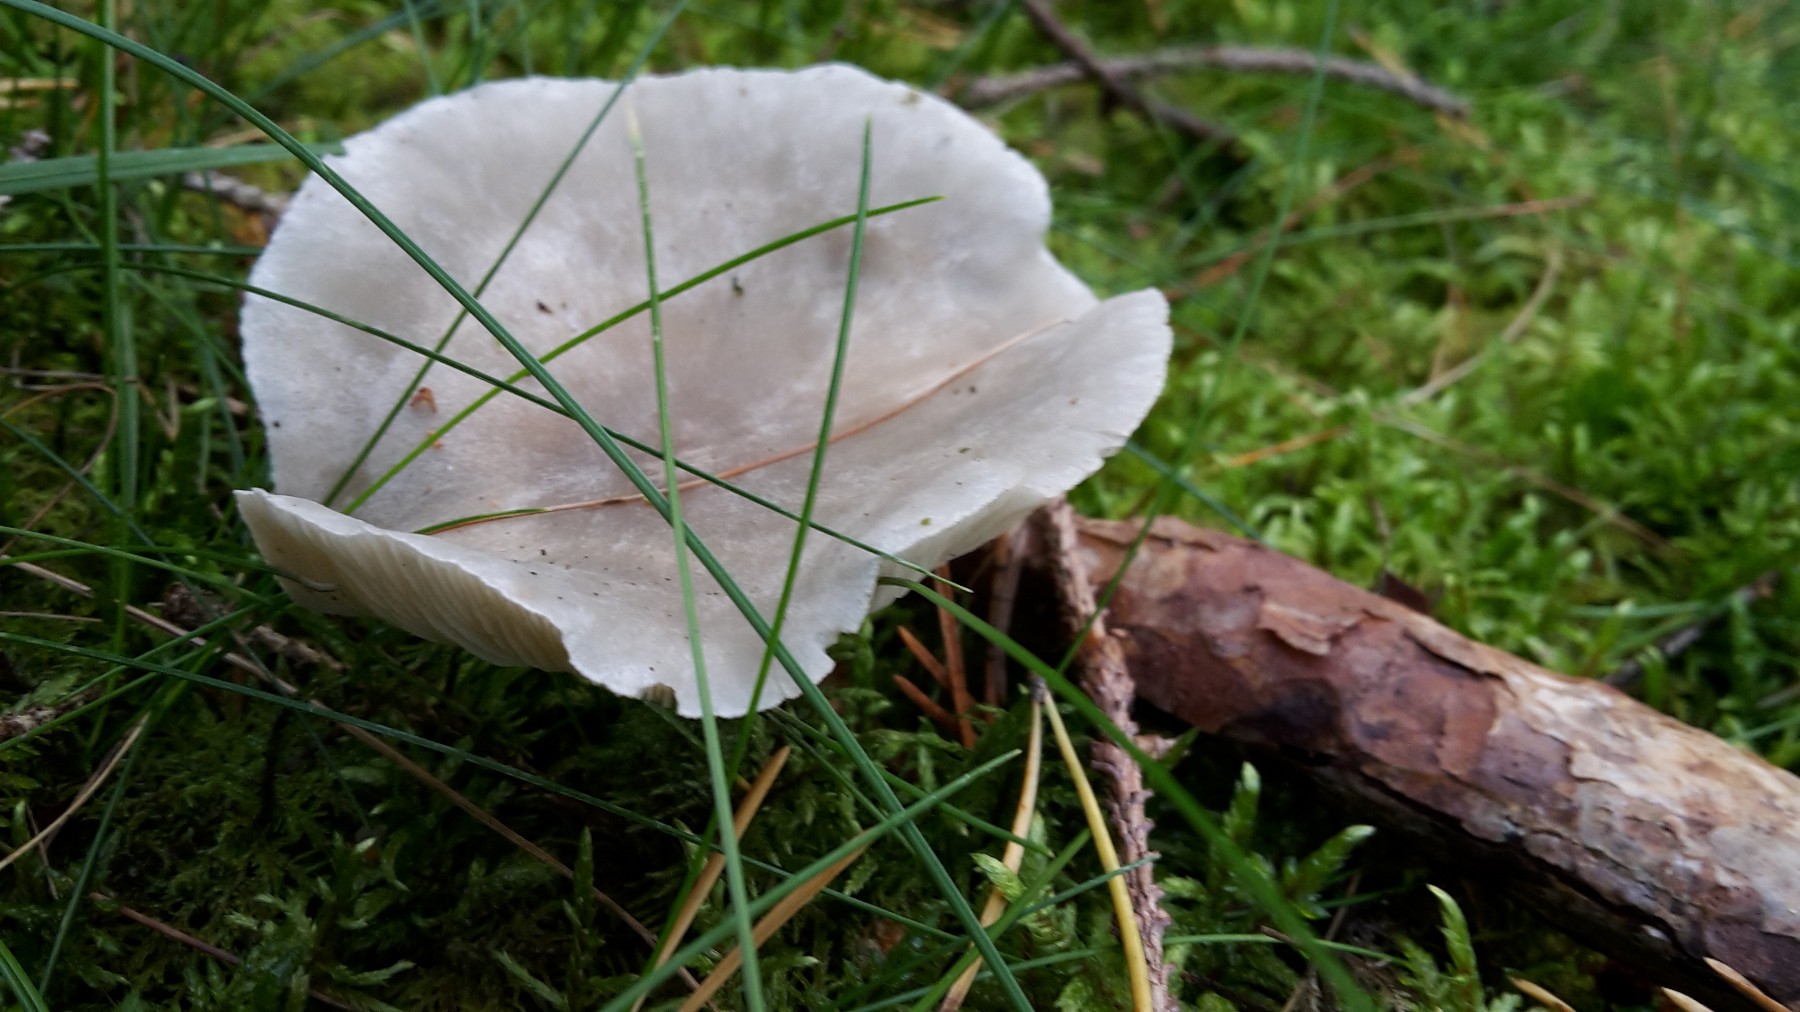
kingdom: Fungi
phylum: Basidiomycota
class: Agaricomycetes
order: Agaricales
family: Tricholomataceae
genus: Clitocybe
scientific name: Clitocybe odora
